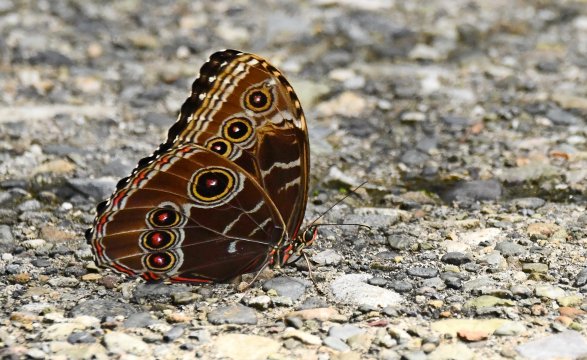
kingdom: Animalia
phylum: Arthropoda
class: Insecta
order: Lepidoptera
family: Nymphalidae
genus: Morpho
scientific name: Morpho helenor
